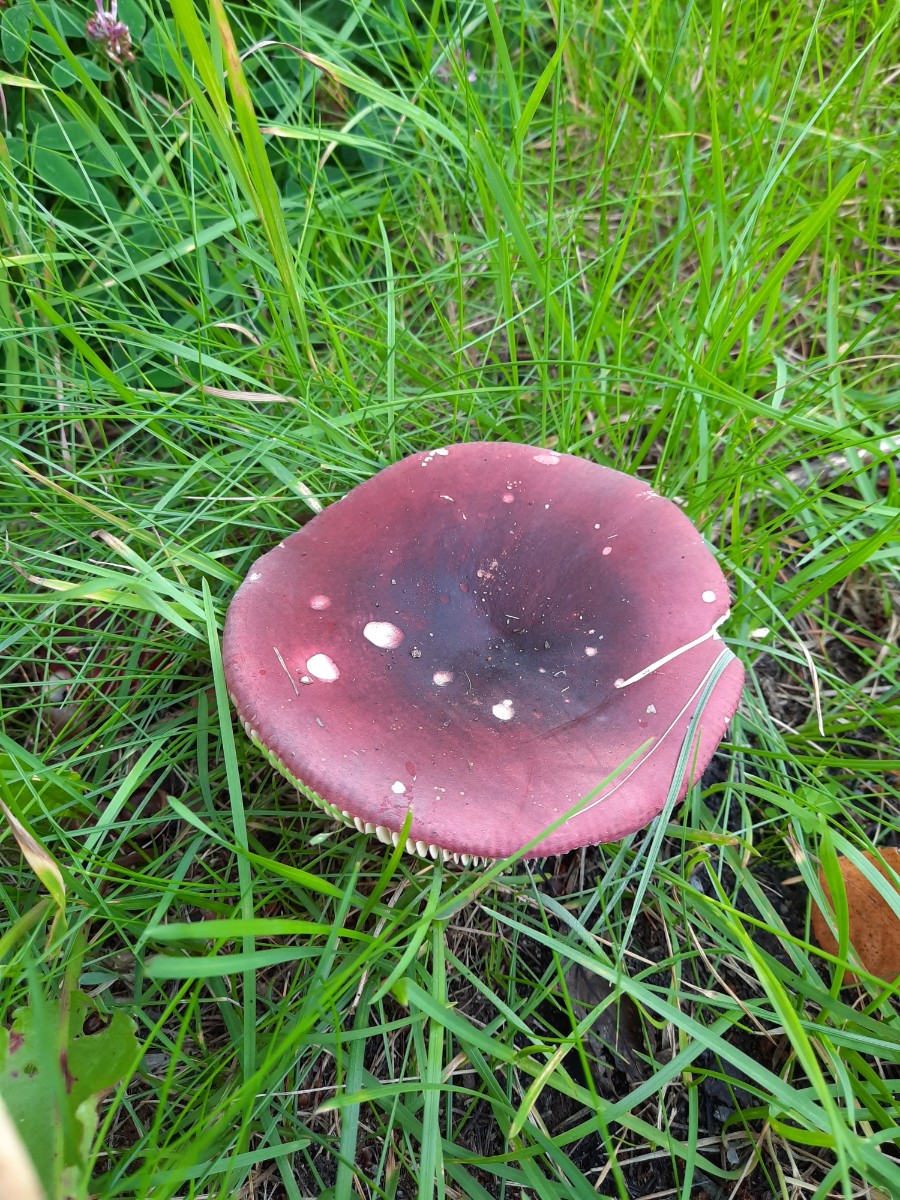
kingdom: Fungi
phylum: Basidiomycota
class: Agaricomycetes
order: Russulales
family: Russulaceae
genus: Russula
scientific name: Russula xerampelina
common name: hummer-skørhat
